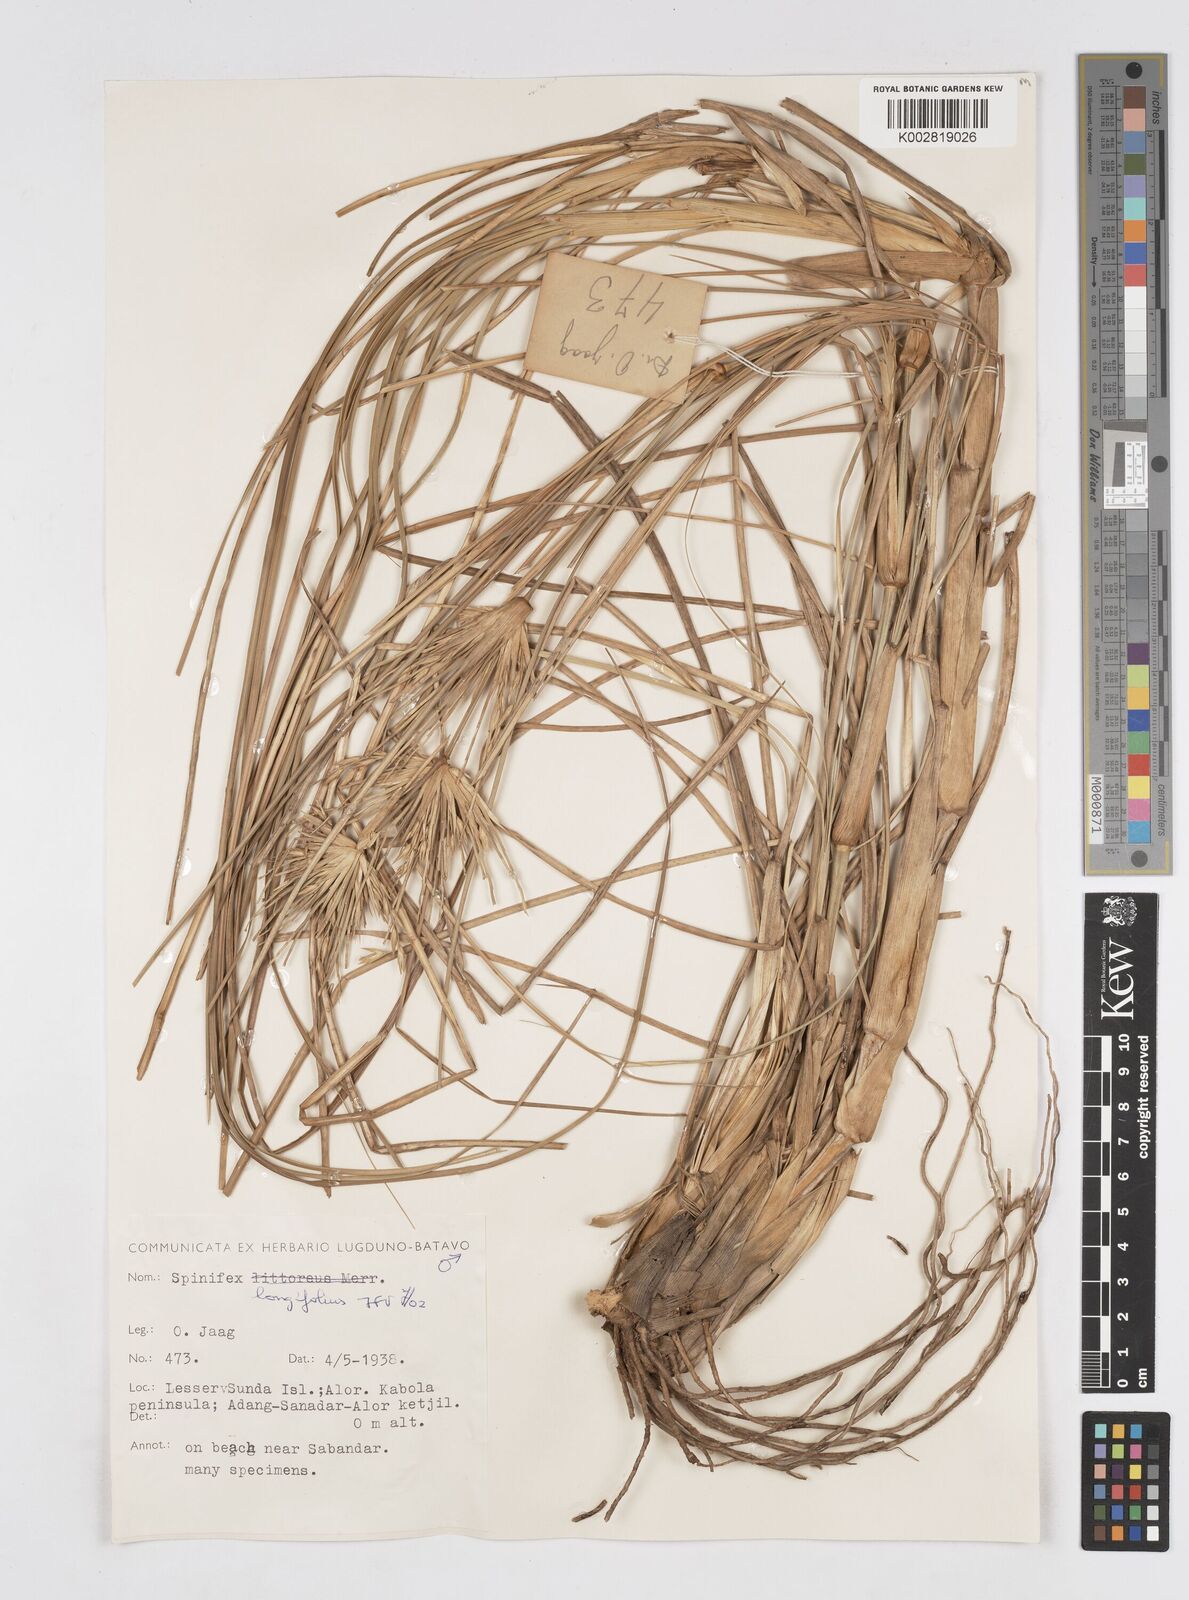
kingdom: Plantae
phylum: Tracheophyta
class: Liliopsida
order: Poales
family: Poaceae
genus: Spinifex
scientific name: Spinifex longifolius
